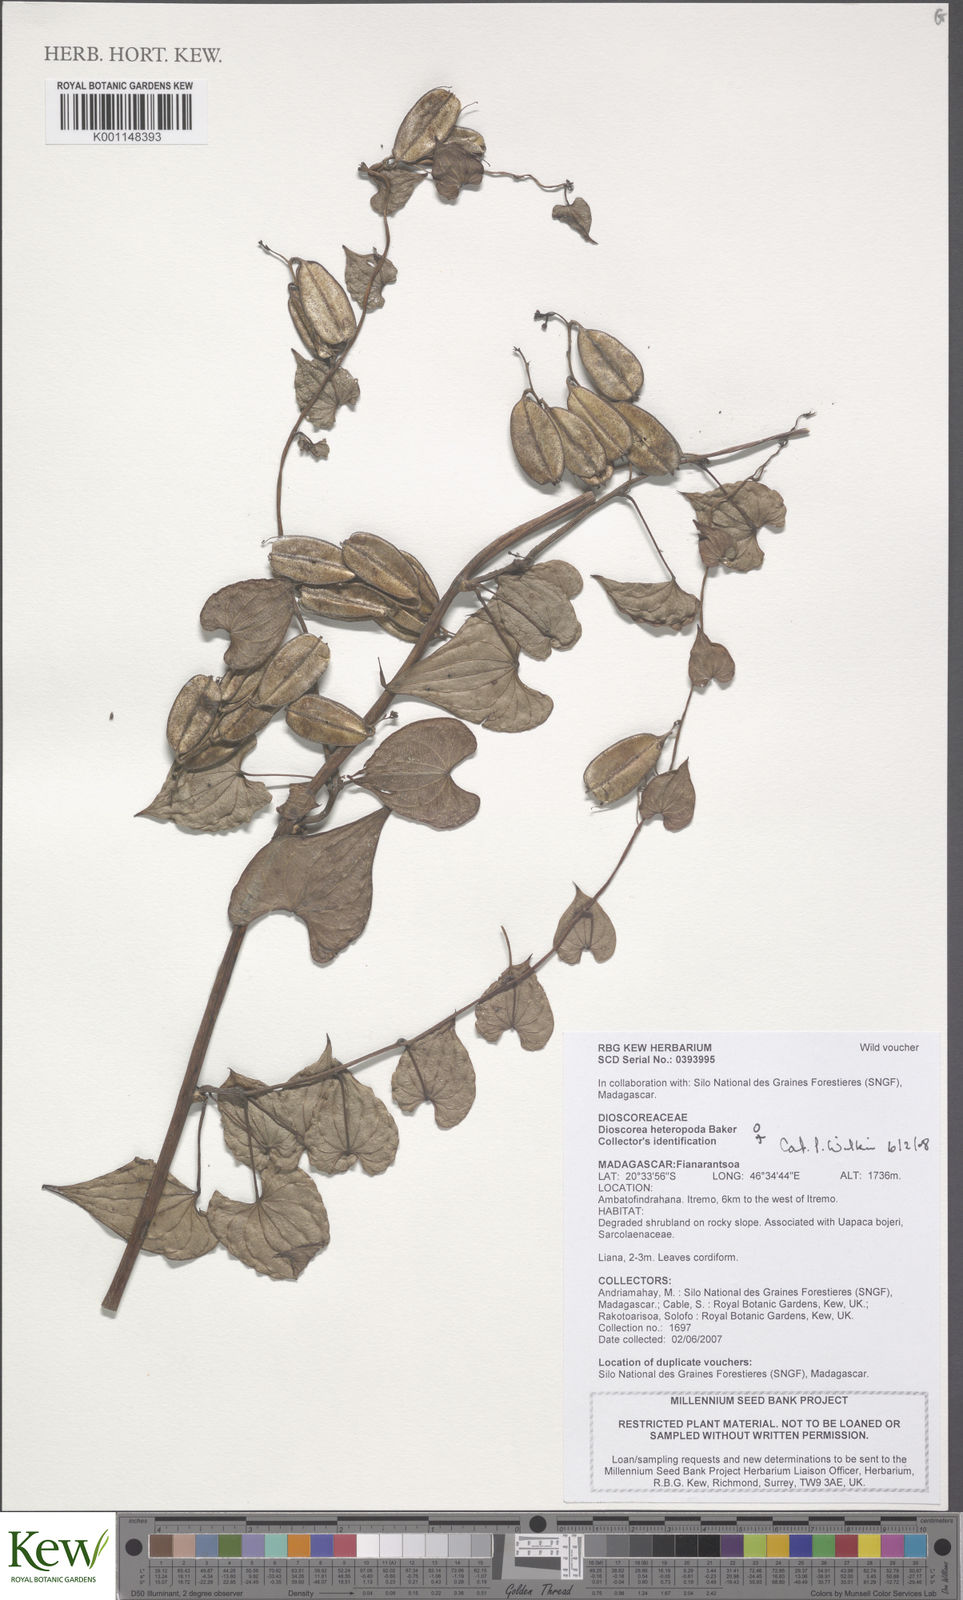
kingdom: Plantae
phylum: Tracheophyta
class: Liliopsida
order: Dioscoreales
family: Dioscoreaceae
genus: Dioscorea
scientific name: Dioscorea heteropoda
